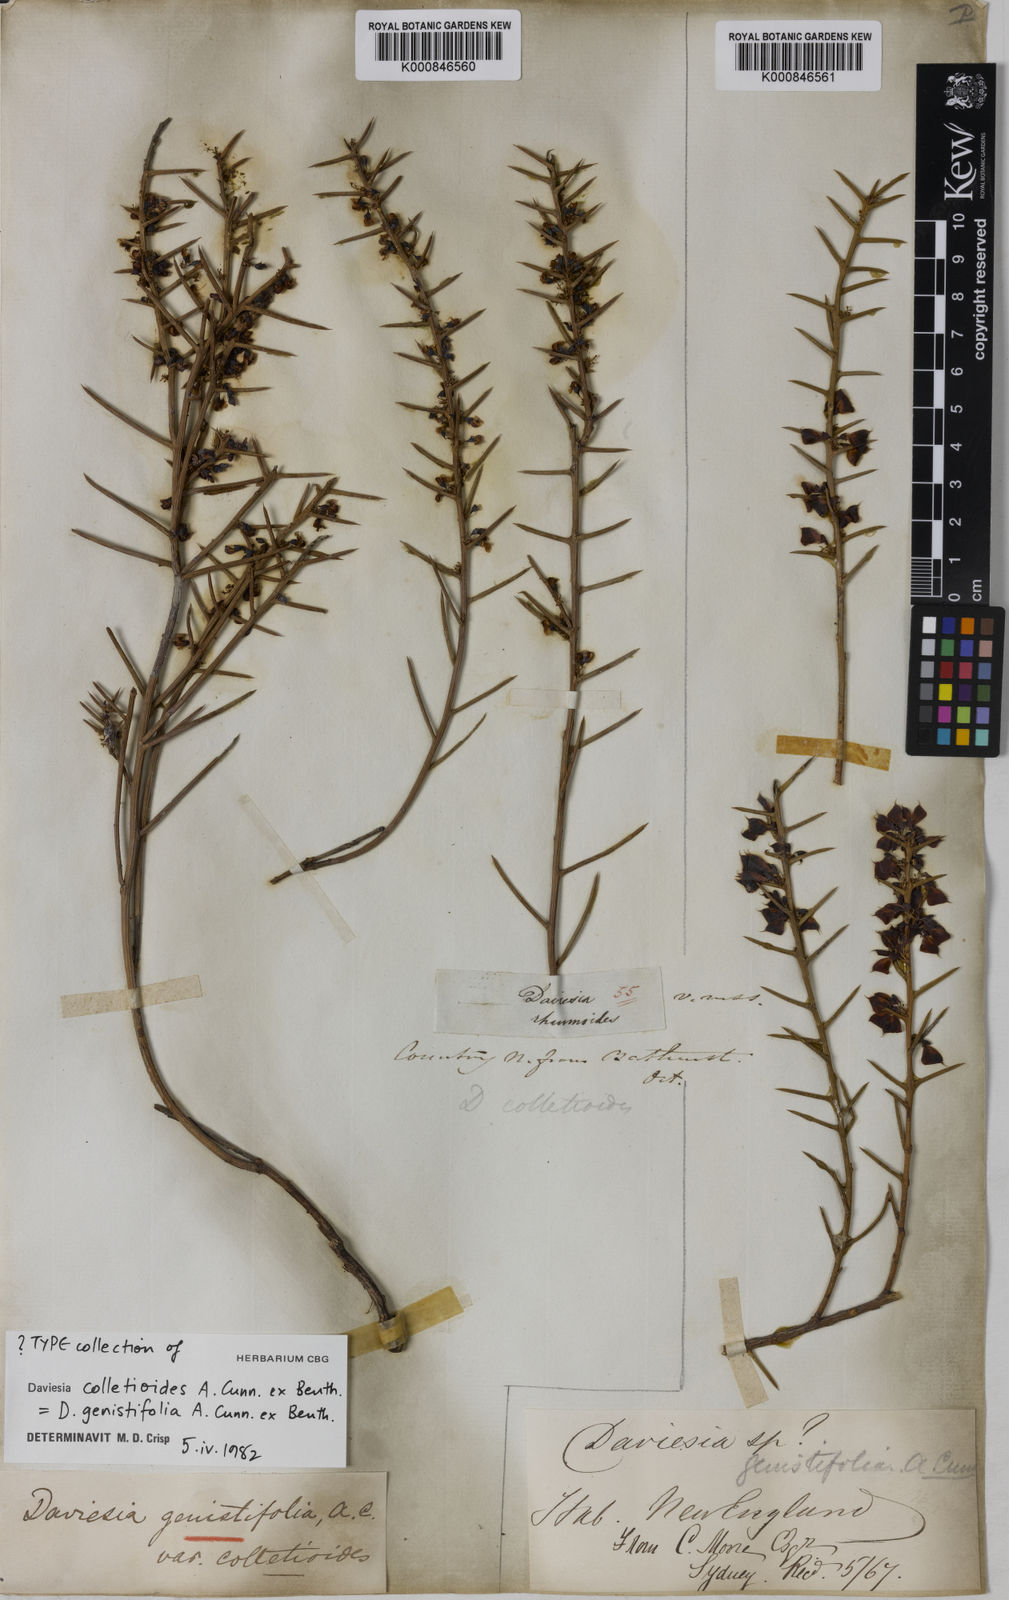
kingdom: Plantae
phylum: Tracheophyta
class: Magnoliopsida
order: Fabales
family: Fabaceae
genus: Daviesia
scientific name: Daviesia genistifolia
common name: Broom bitter-pea
